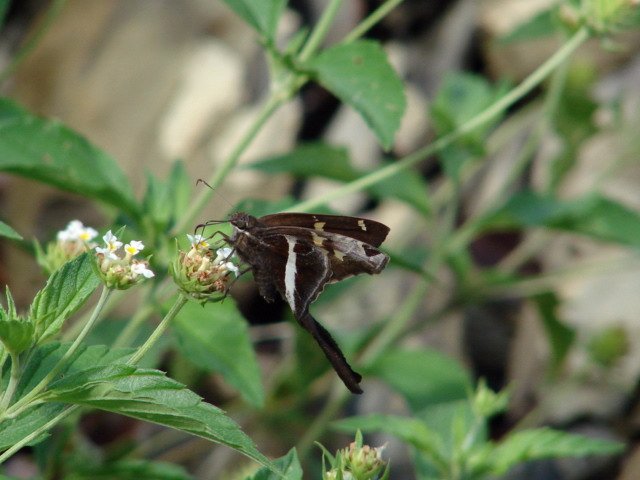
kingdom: Animalia
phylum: Arthropoda
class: Insecta
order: Lepidoptera
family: Hesperiidae
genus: Chioides
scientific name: Chioides catillus
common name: White-striped Longtail
